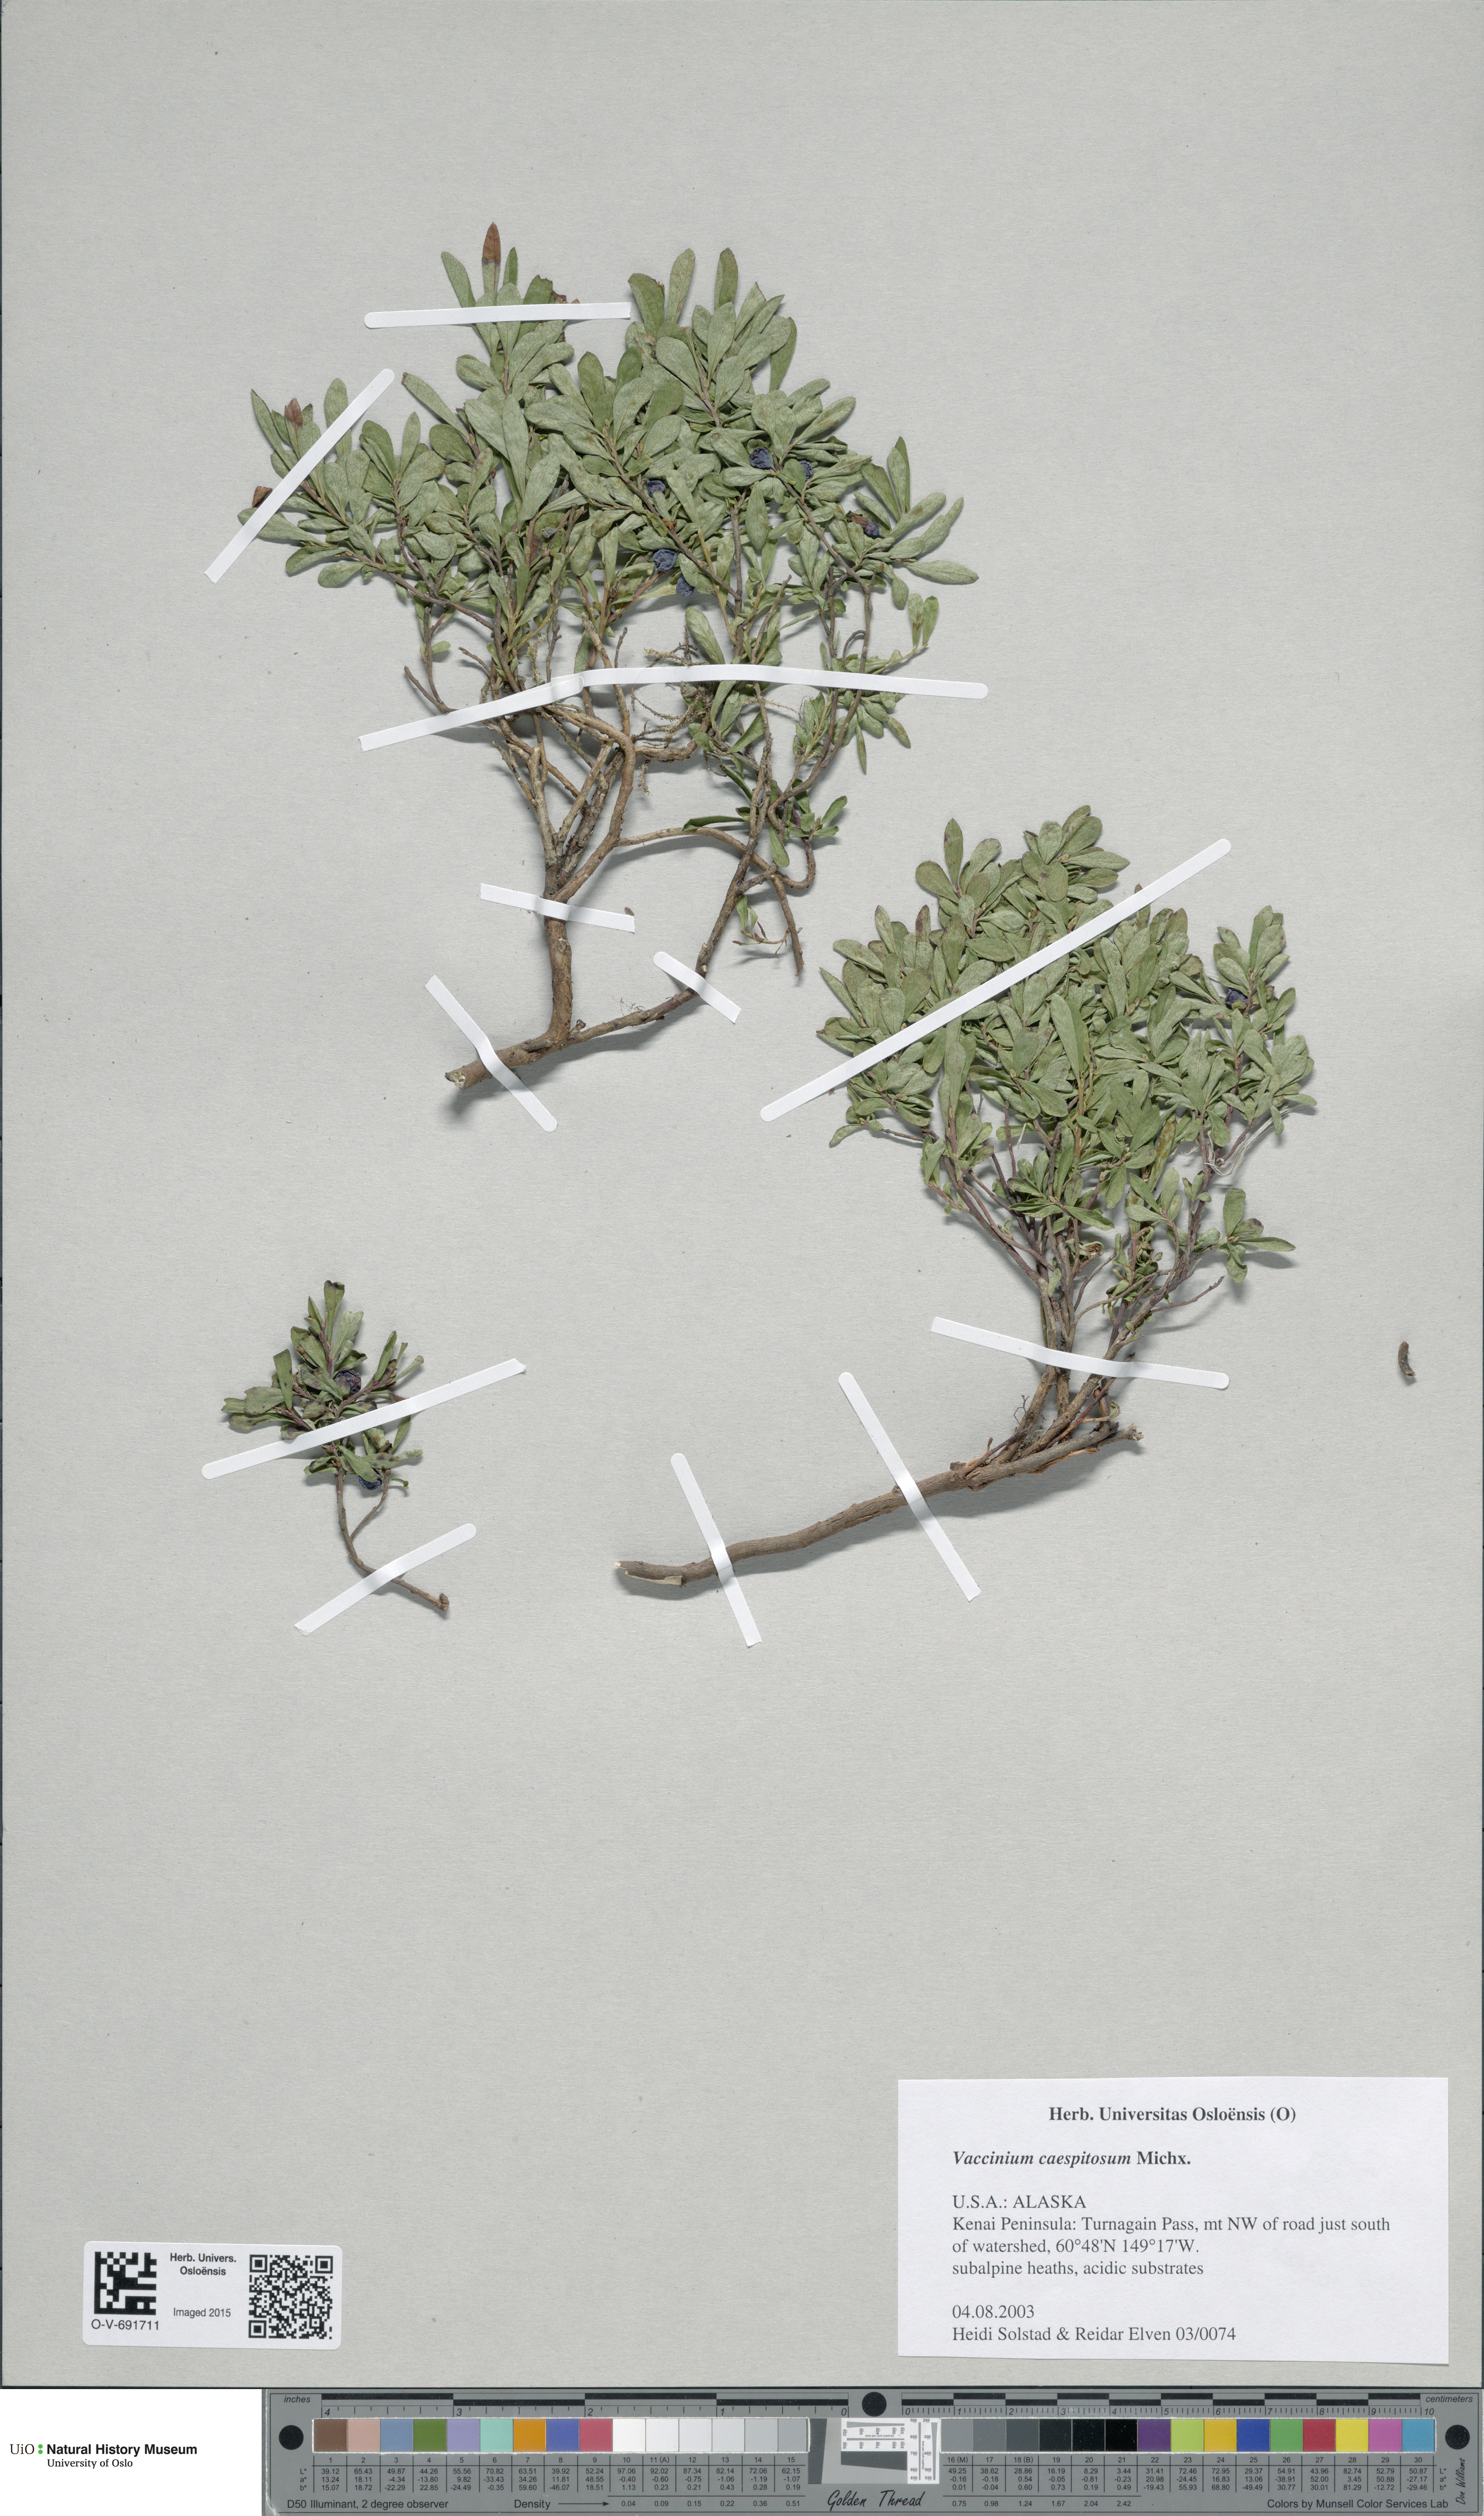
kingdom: Plantae
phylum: Tracheophyta
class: Magnoliopsida
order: Ericales
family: Ericaceae
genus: Vaccinium
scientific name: Vaccinium cespitosum
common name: Dwarf bilberry
